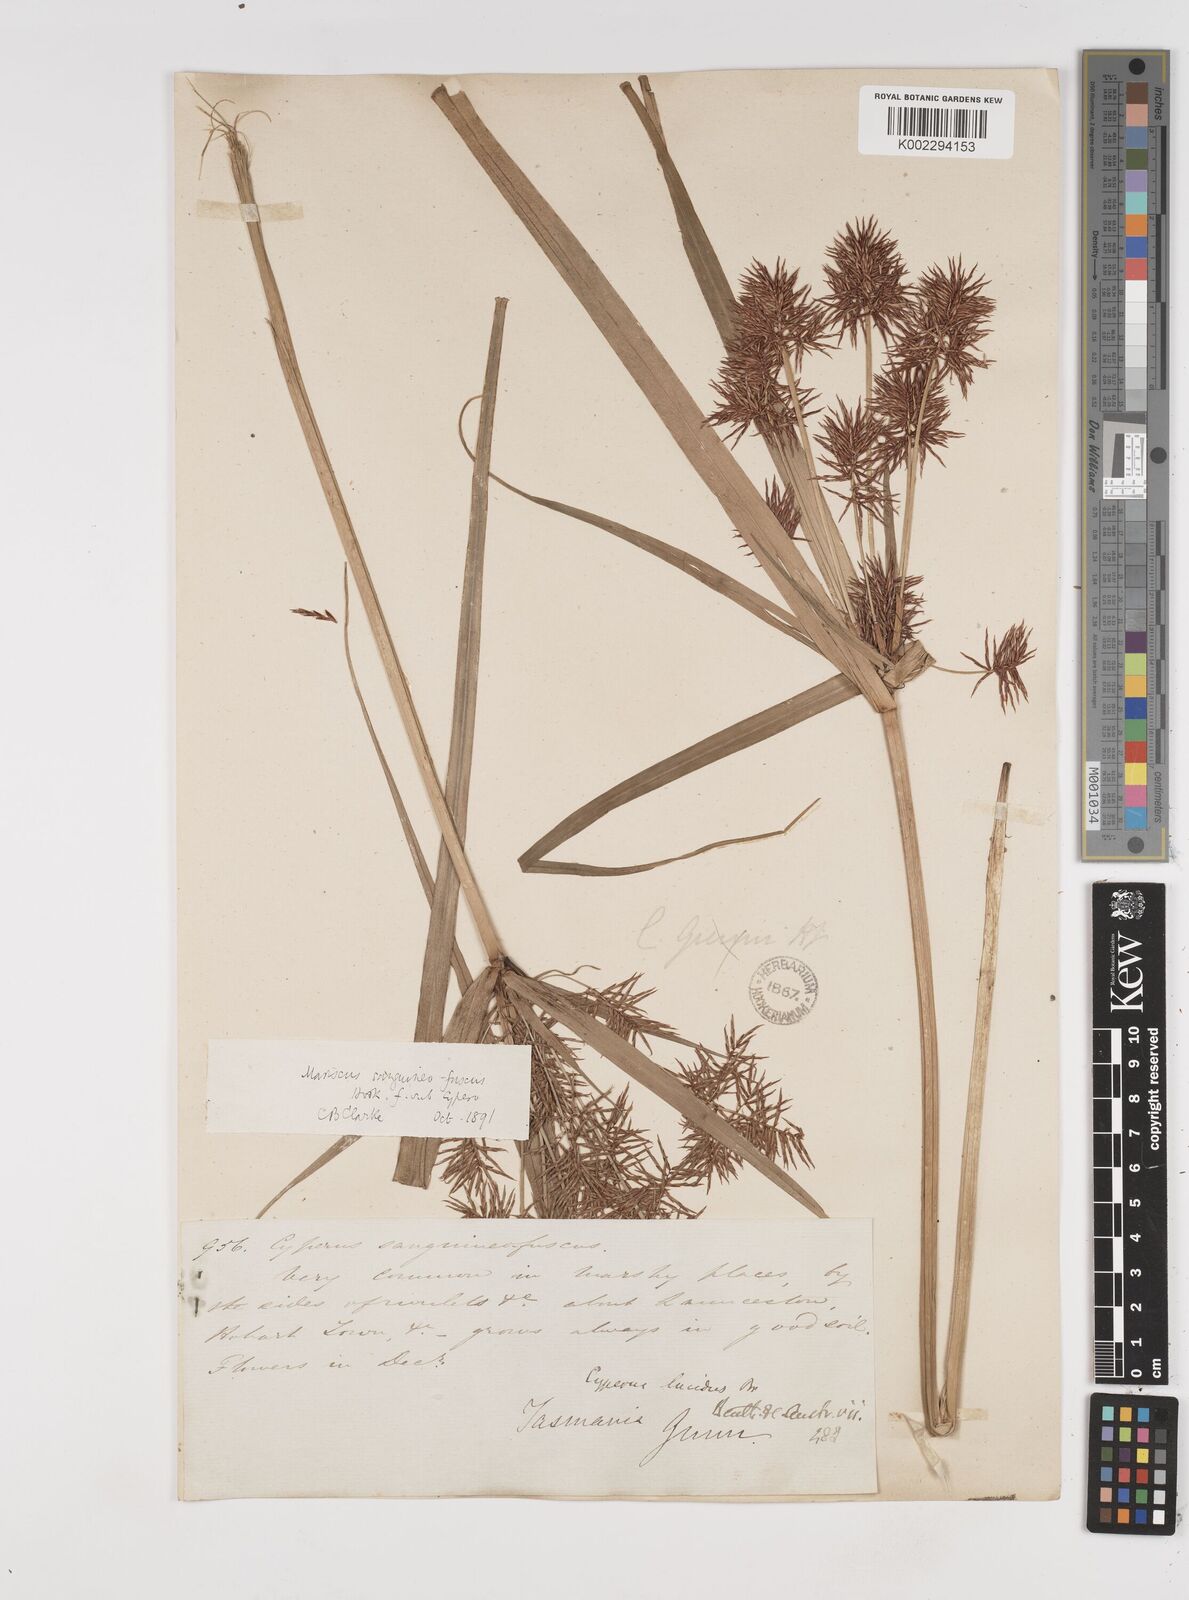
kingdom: Plantae
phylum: Tracheophyta
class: Liliopsida
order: Poales
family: Cyperaceae
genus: Cyperus
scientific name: Cyperus lucidus
